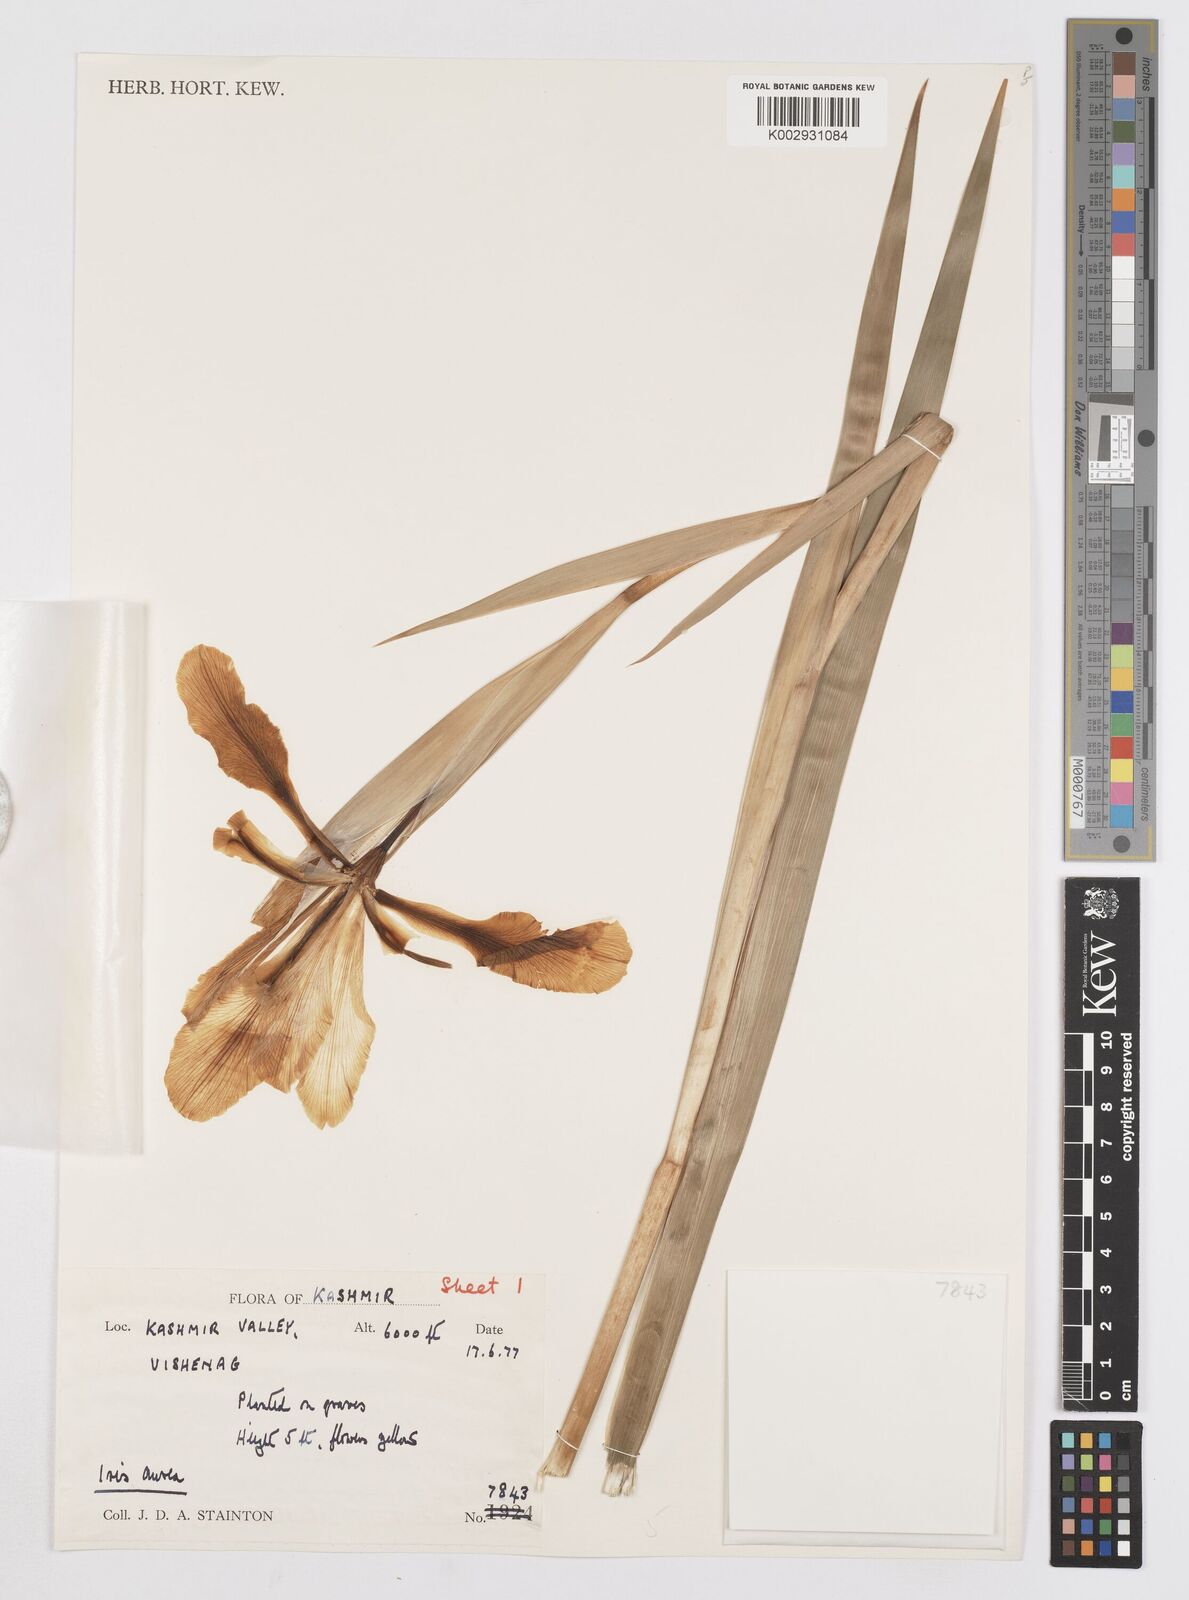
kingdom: Plantae
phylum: Tracheophyta
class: Liliopsida
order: Asparagales
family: Iridaceae
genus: Iris
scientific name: Iris crocea
